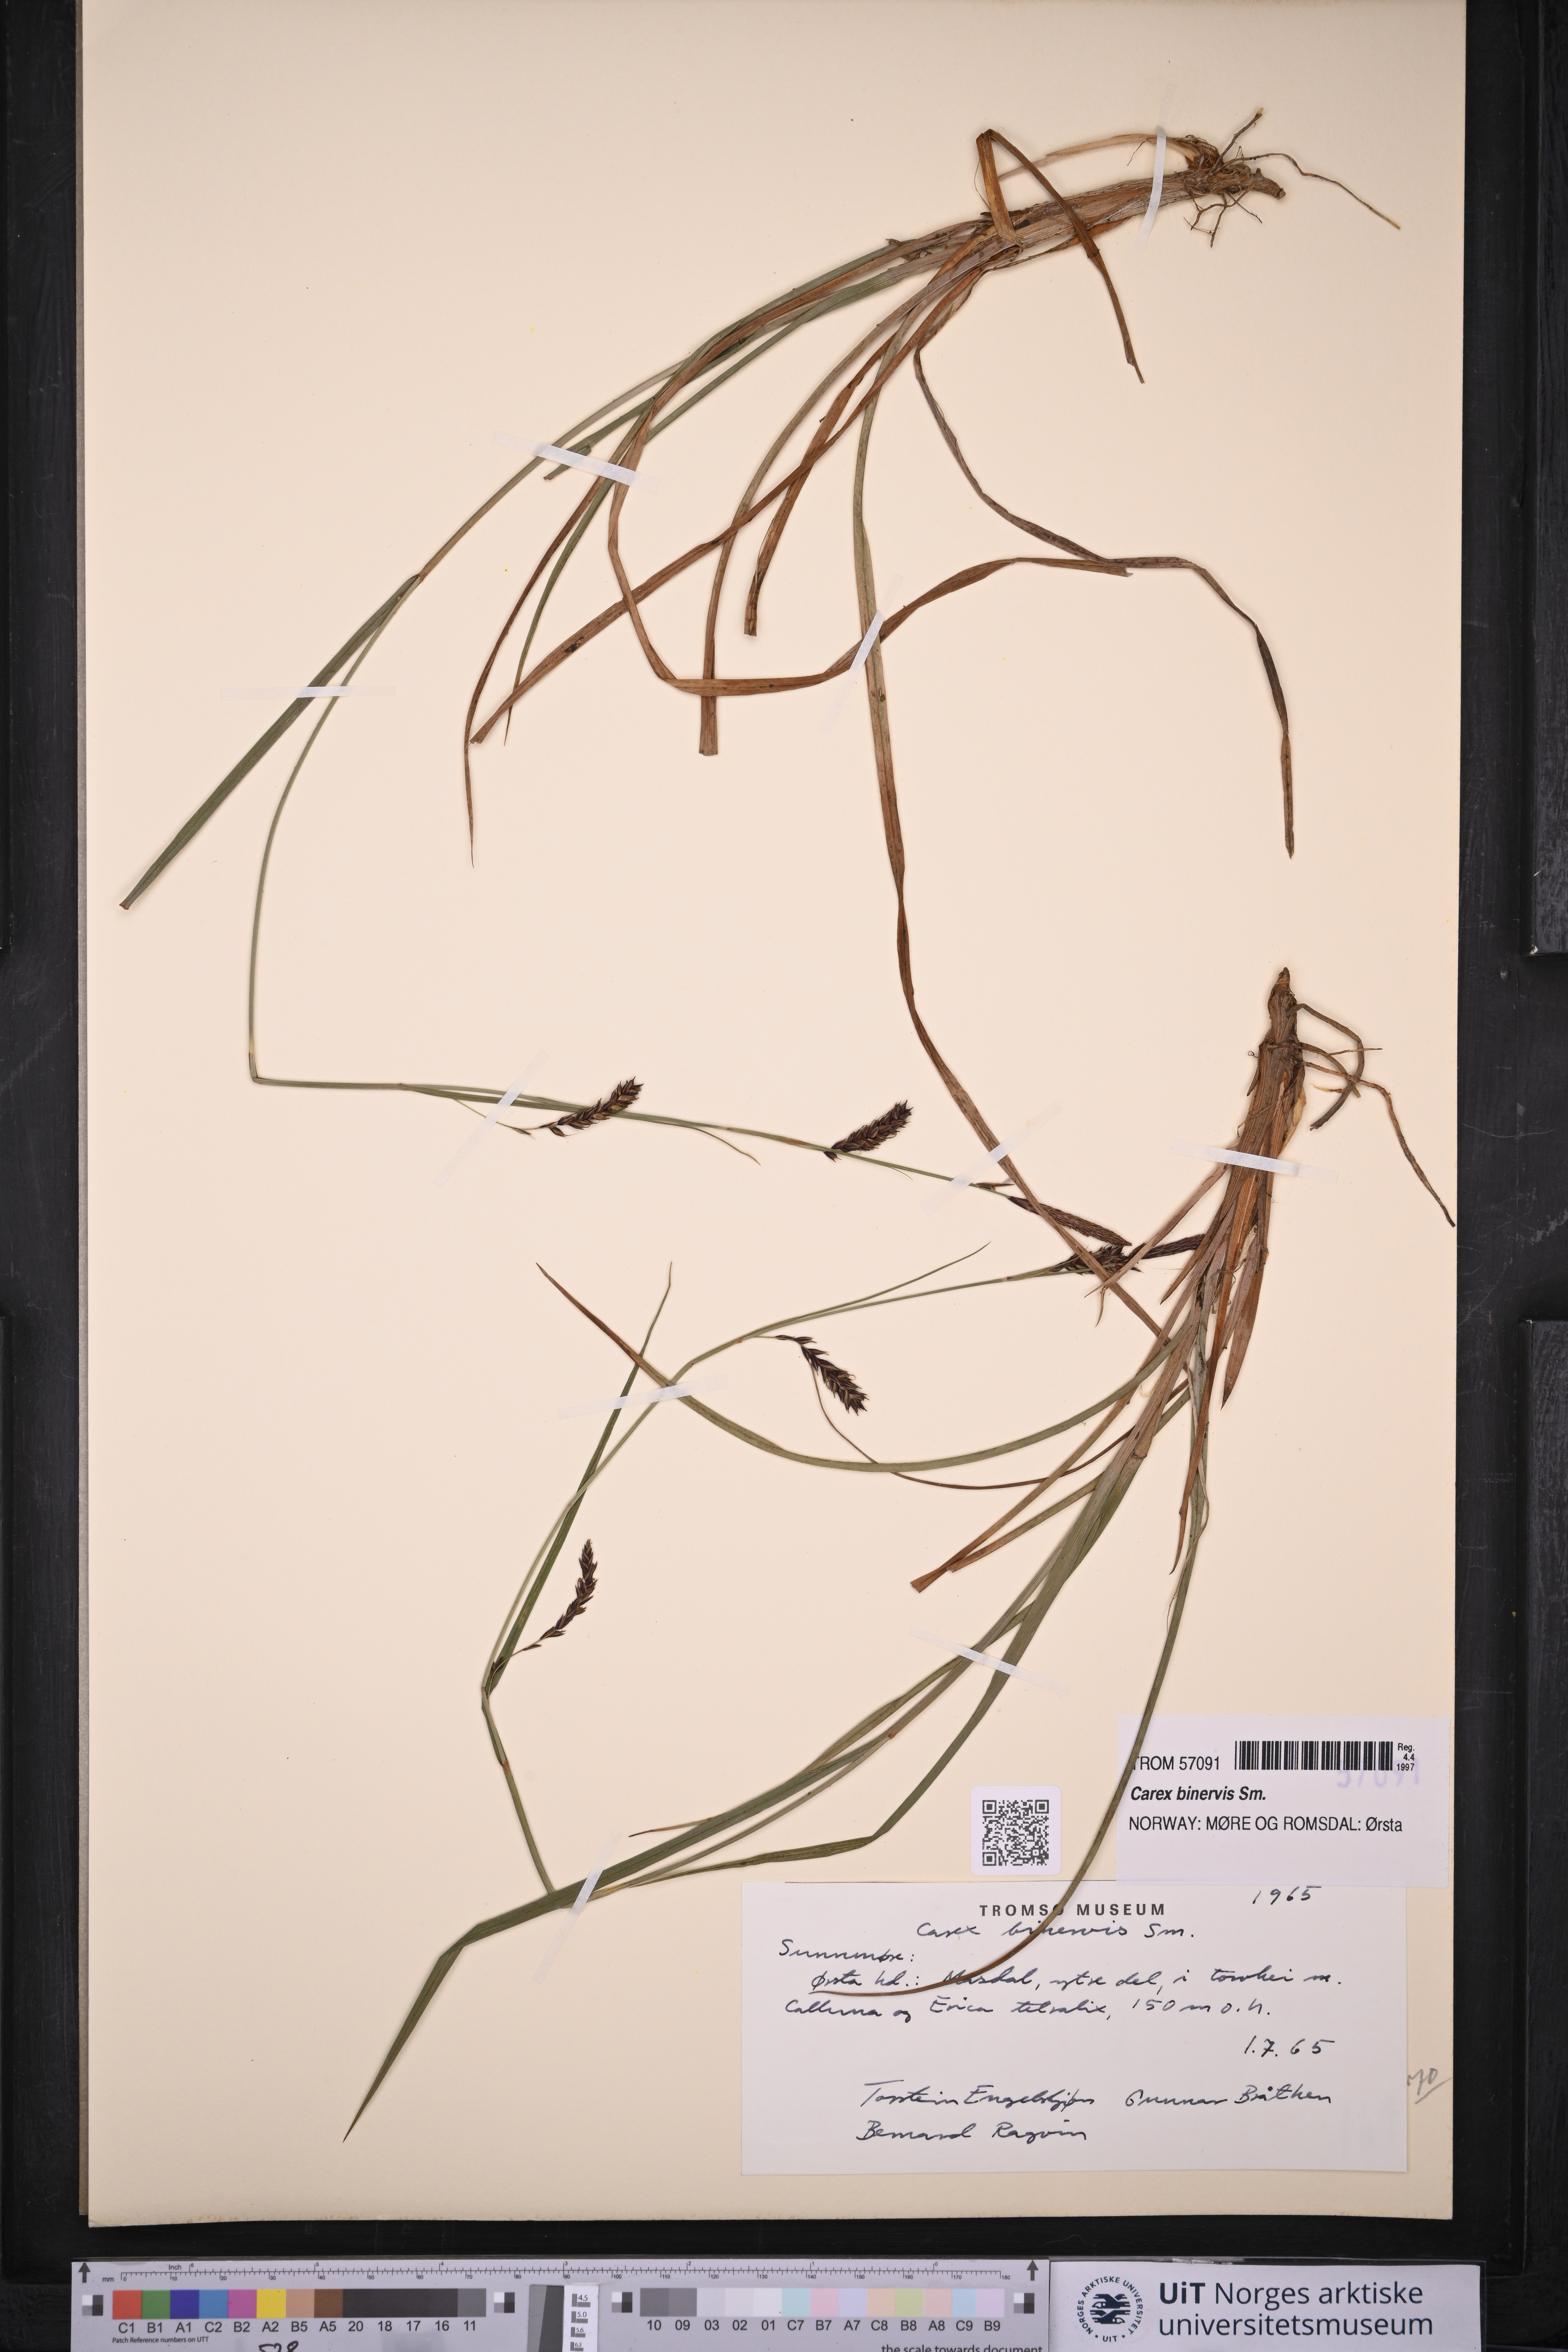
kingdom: Plantae
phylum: Tracheophyta
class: Liliopsida
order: Poales
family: Cyperaceae
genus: Carex
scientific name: Carex binervis
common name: Green-ribbed sedge
